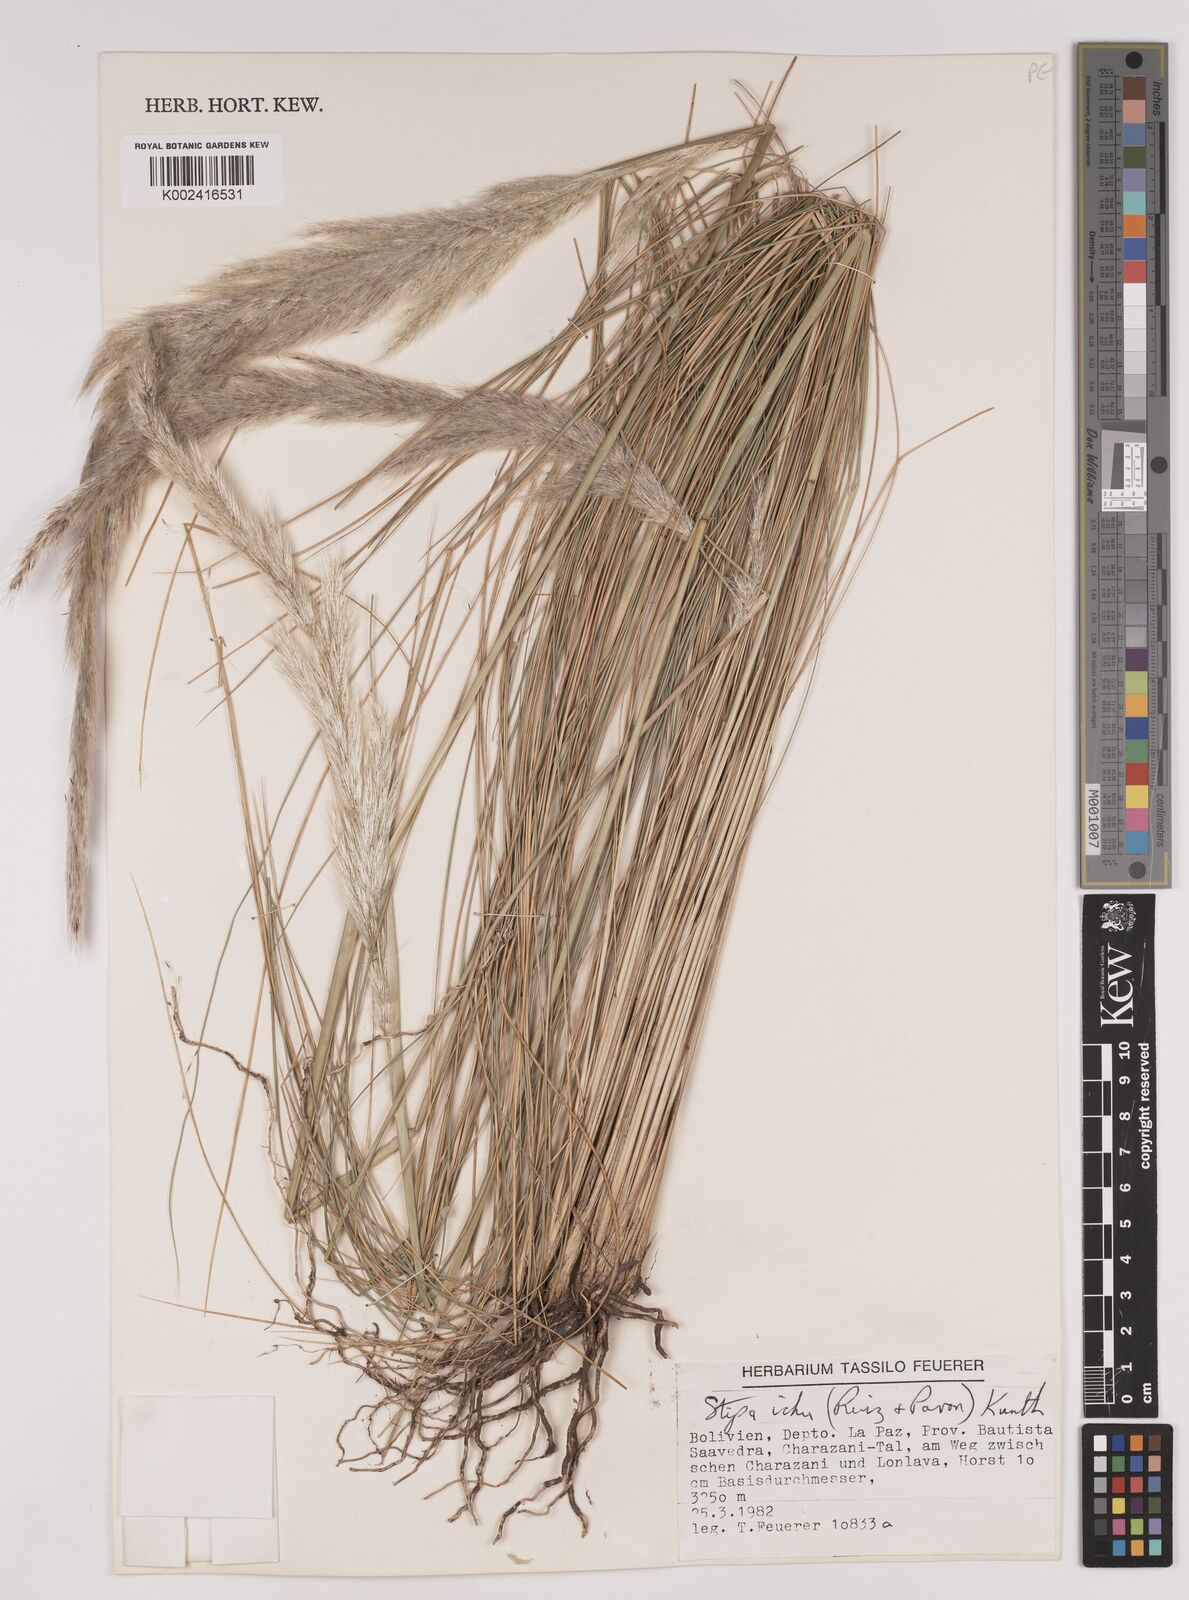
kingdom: Plantae
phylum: Tracheophyta
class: Liliopsida
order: Poales
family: Poaceae
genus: Stipa
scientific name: Stipa
